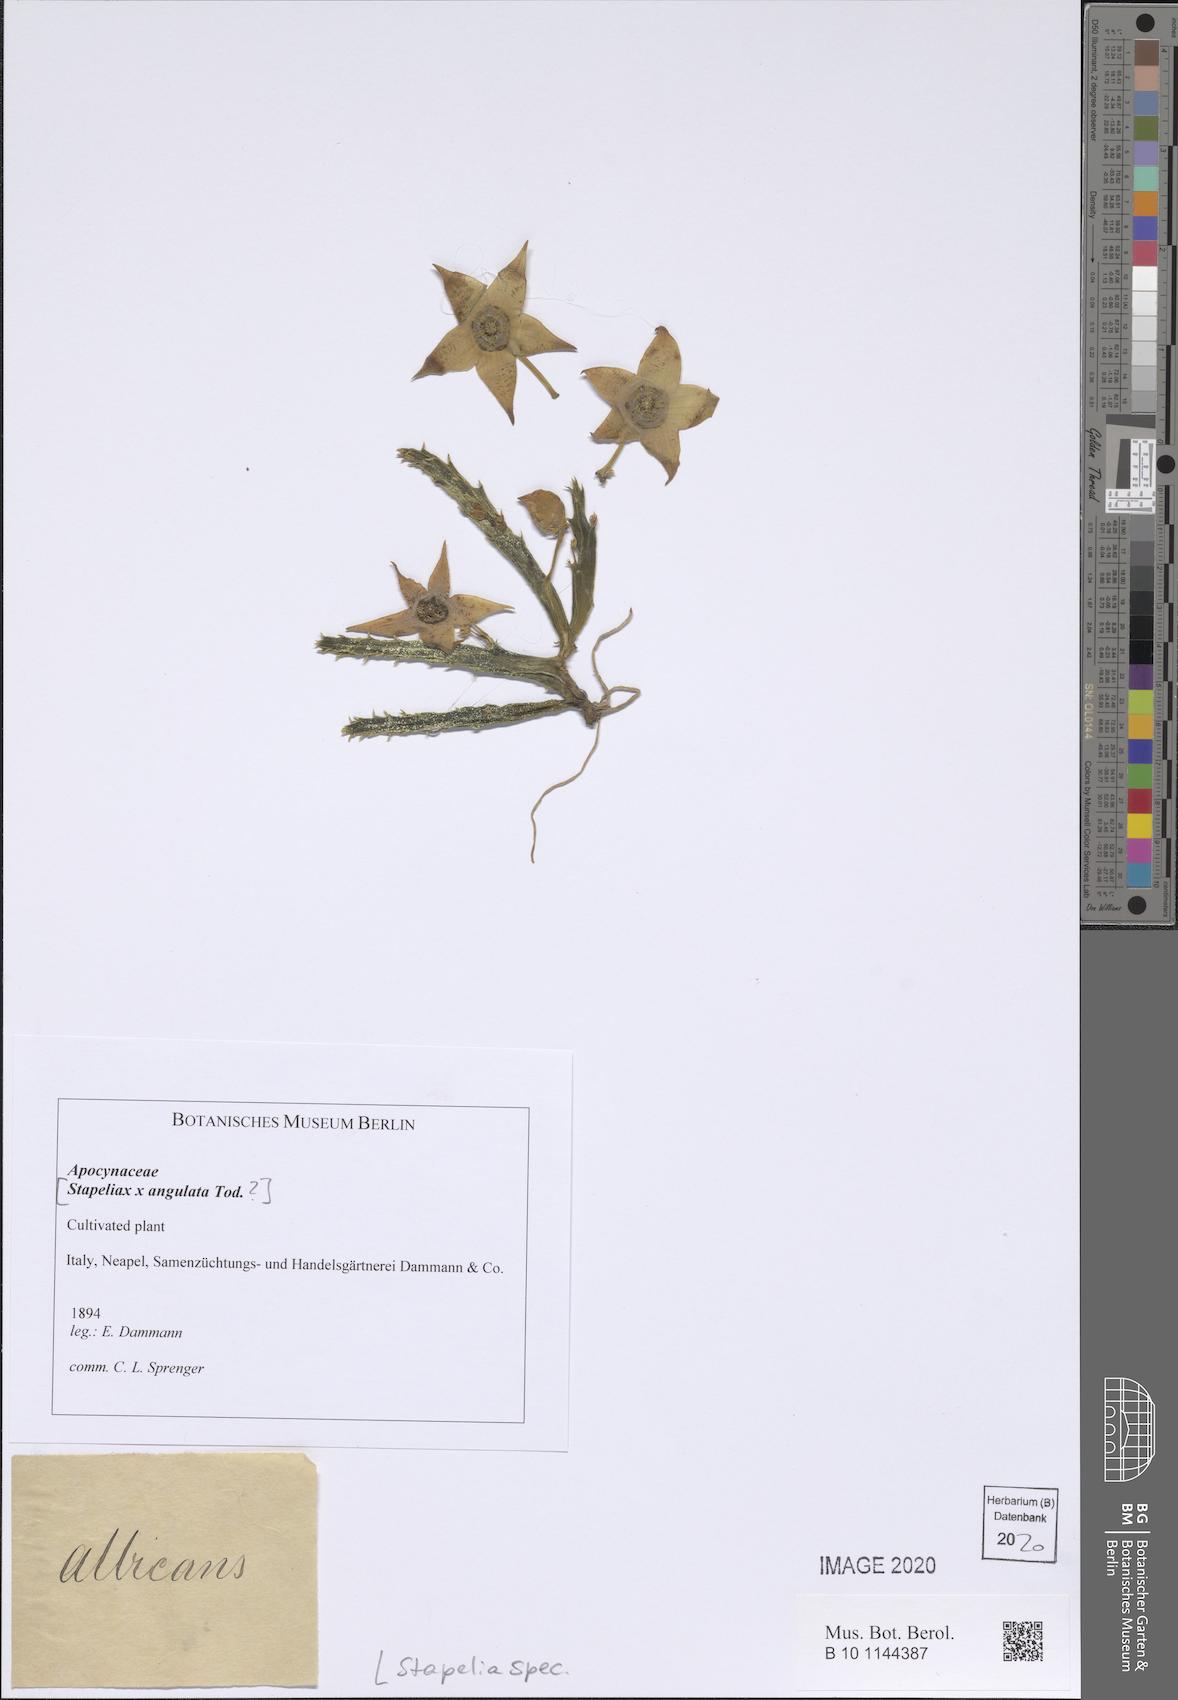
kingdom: Plantae
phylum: Tracheophyta
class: Magnoliopsida
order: Gentianales
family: Apocynaceae
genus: Stapelia
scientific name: Stapelia
